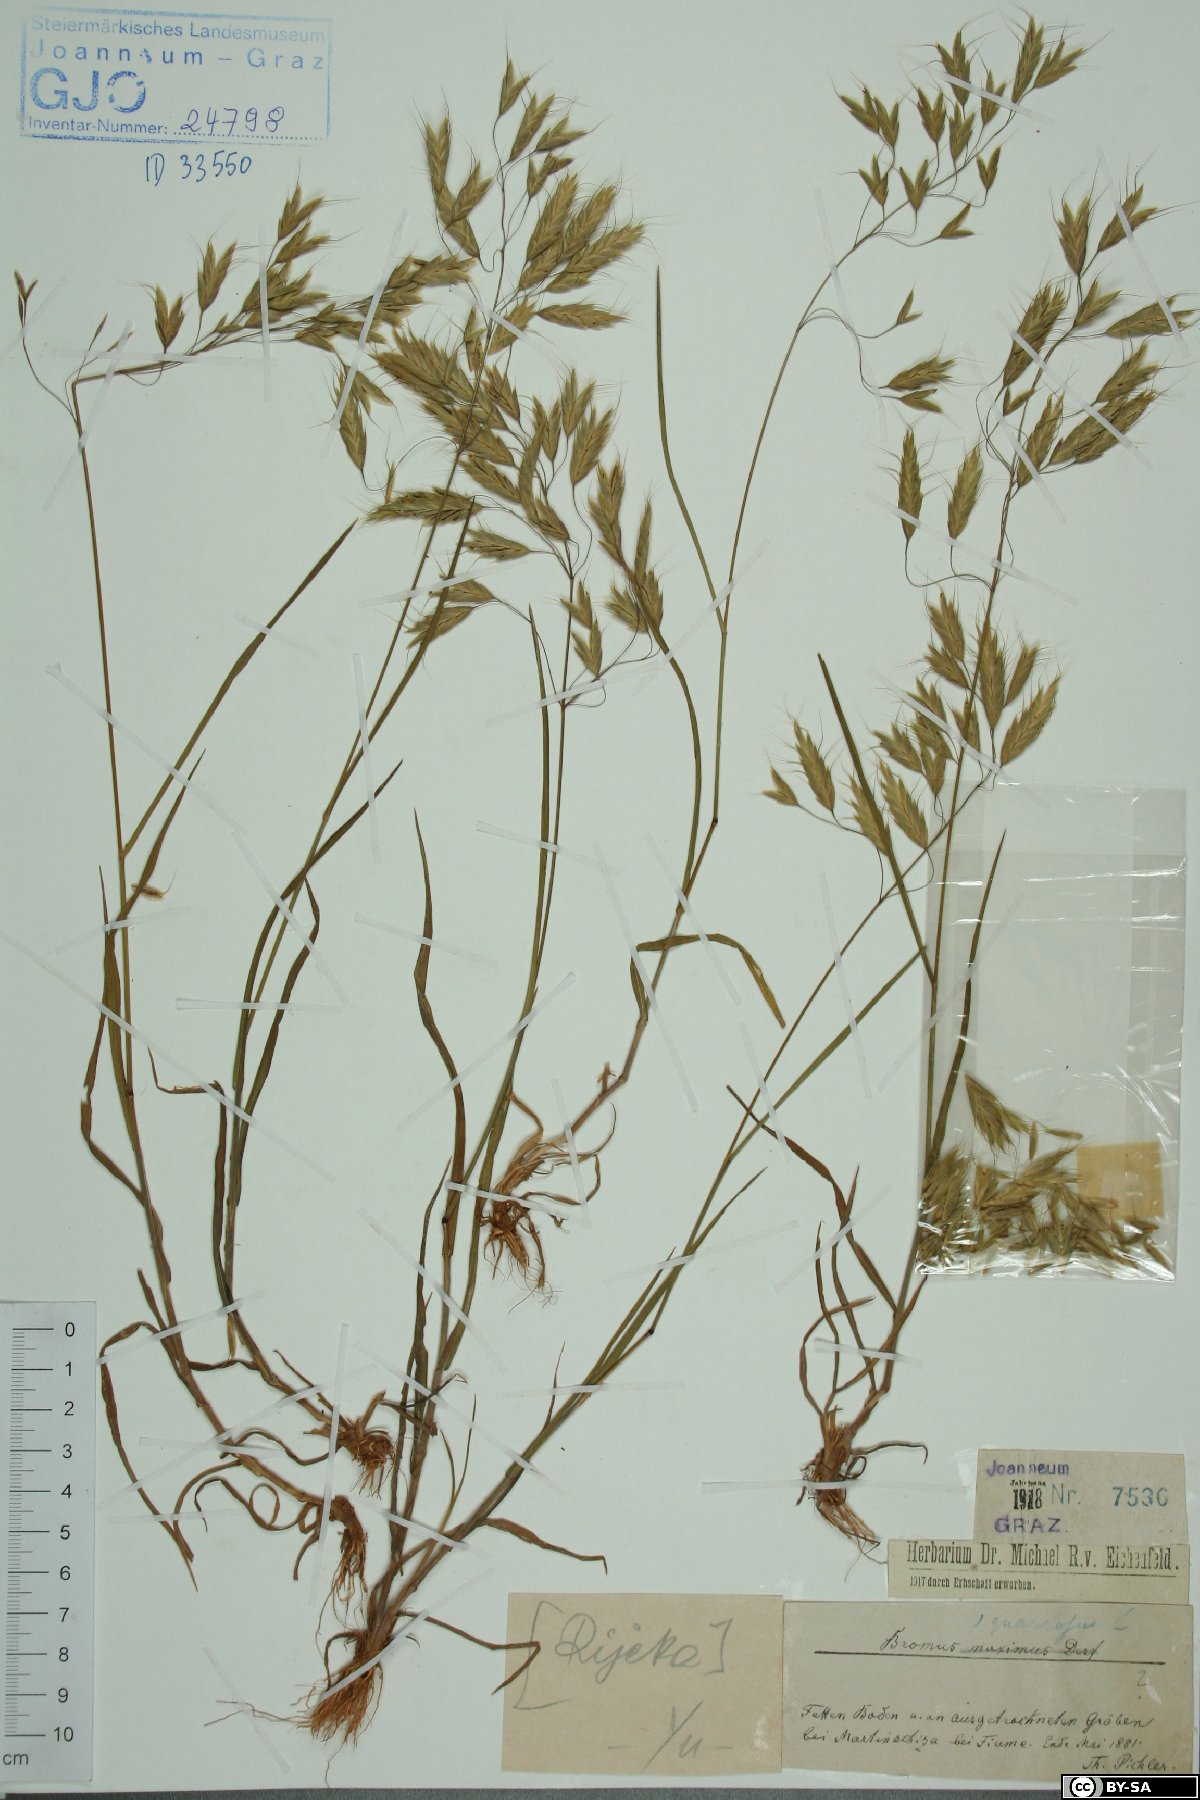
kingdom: Plantae
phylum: Tracheophyta
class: Liliopsida
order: Poales
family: Poaceae
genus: Bromus
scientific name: Bromus squarrosus
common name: Corn brome
